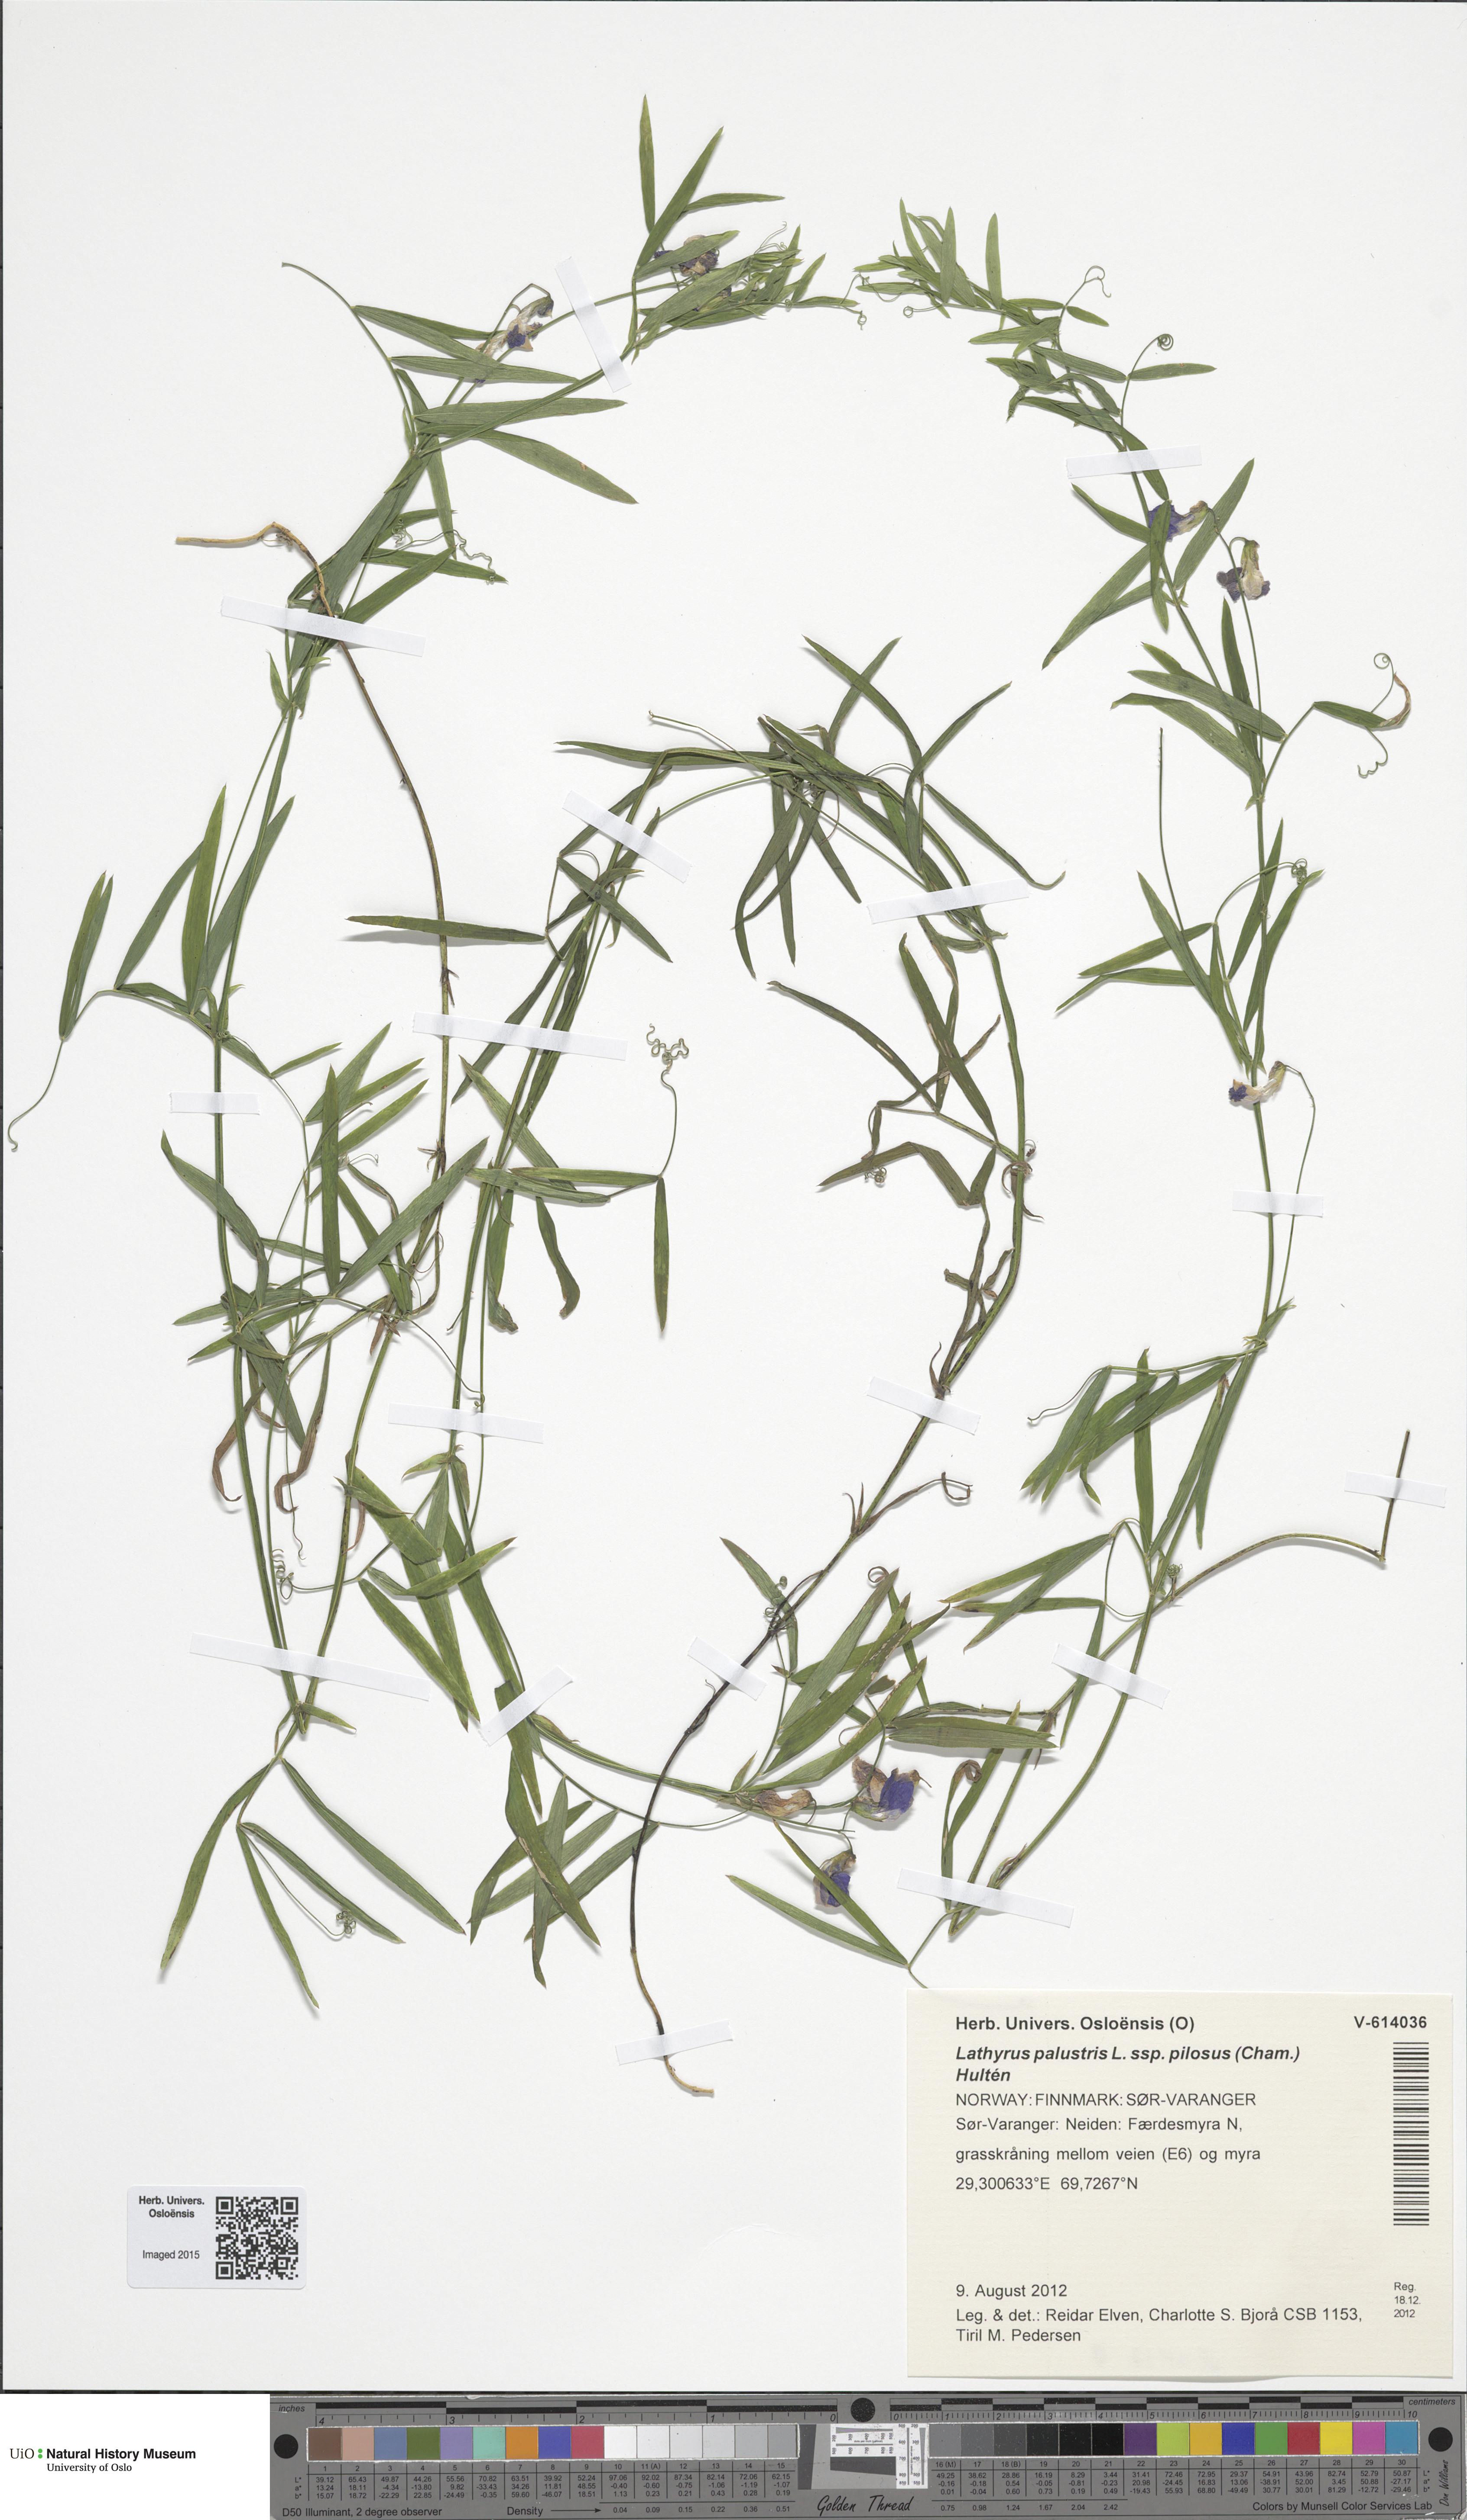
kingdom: Plantae
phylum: Tracheophyta
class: Magnoliopsida
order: Fabales
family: Fabaceae
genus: Lathyrus
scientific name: Lathyrus palustris
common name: Marsh pea
